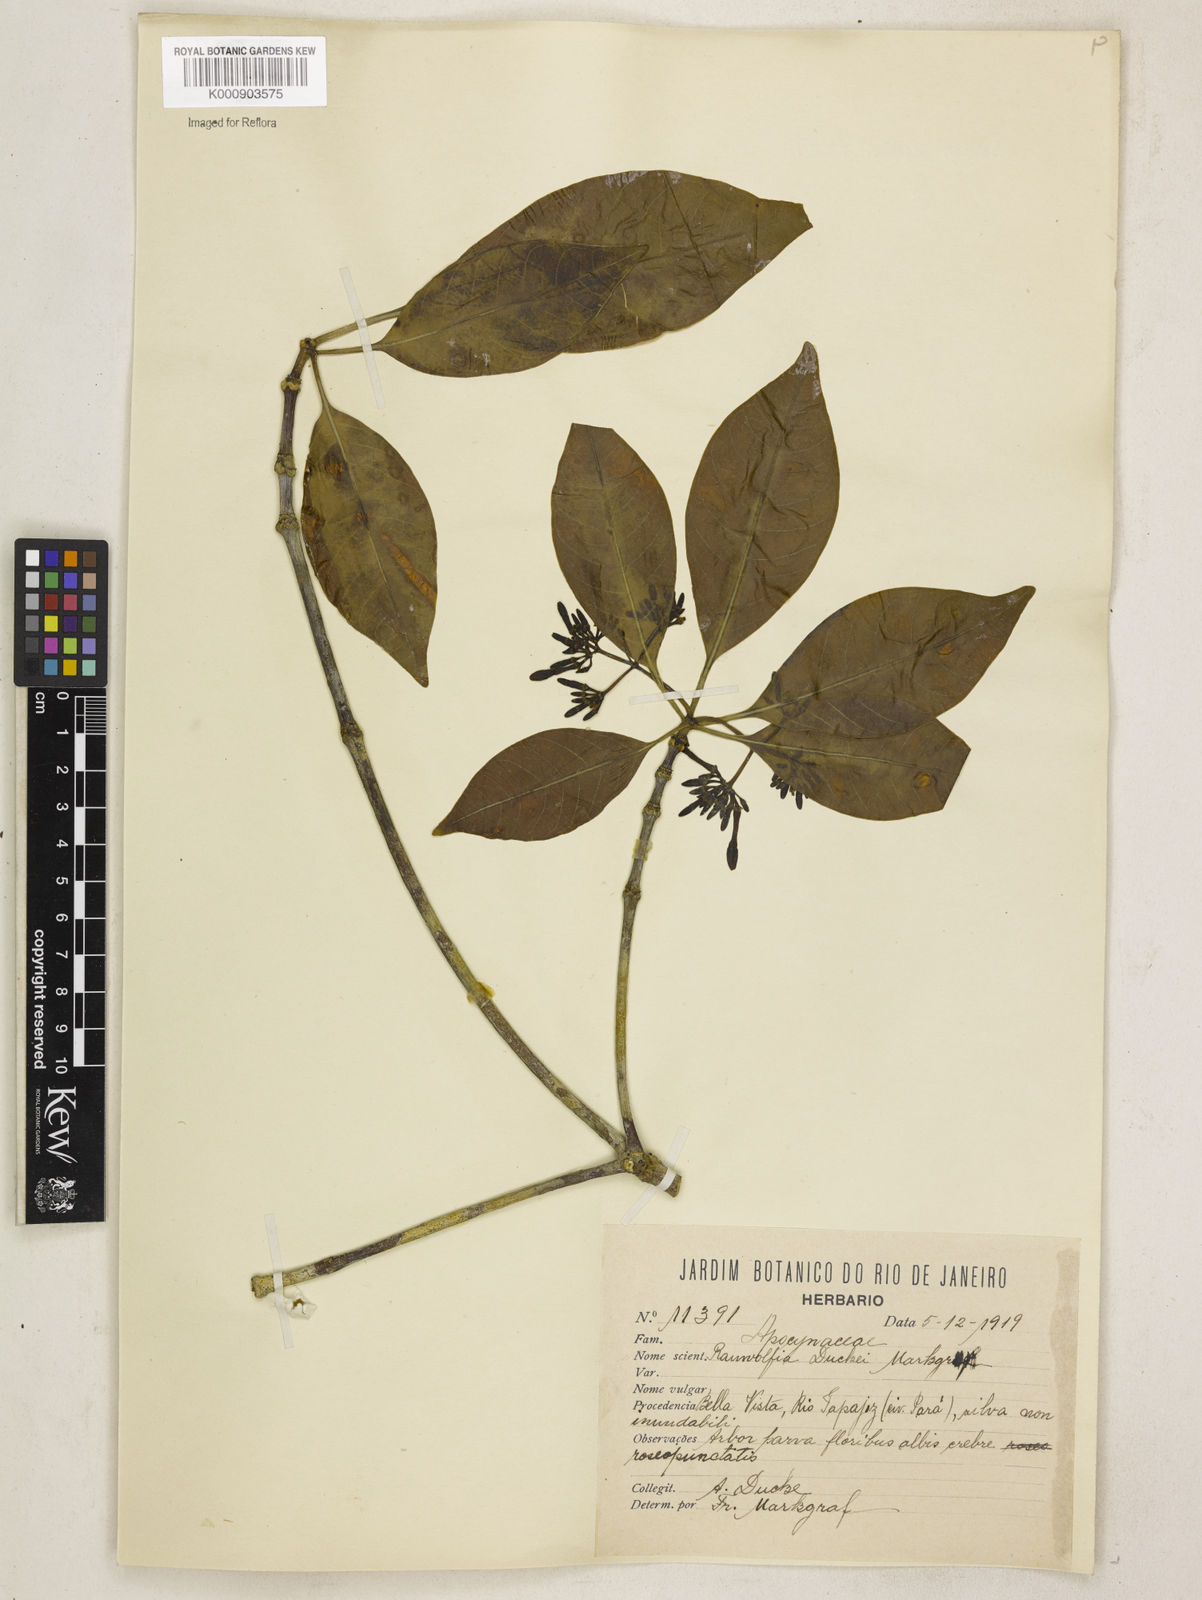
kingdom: Plantae
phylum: Tracheophyta
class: Magnoliopsida
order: Gentianales
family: Apocynaceae
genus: Rauvolfia
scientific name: Rauvolfia pentaphylla
